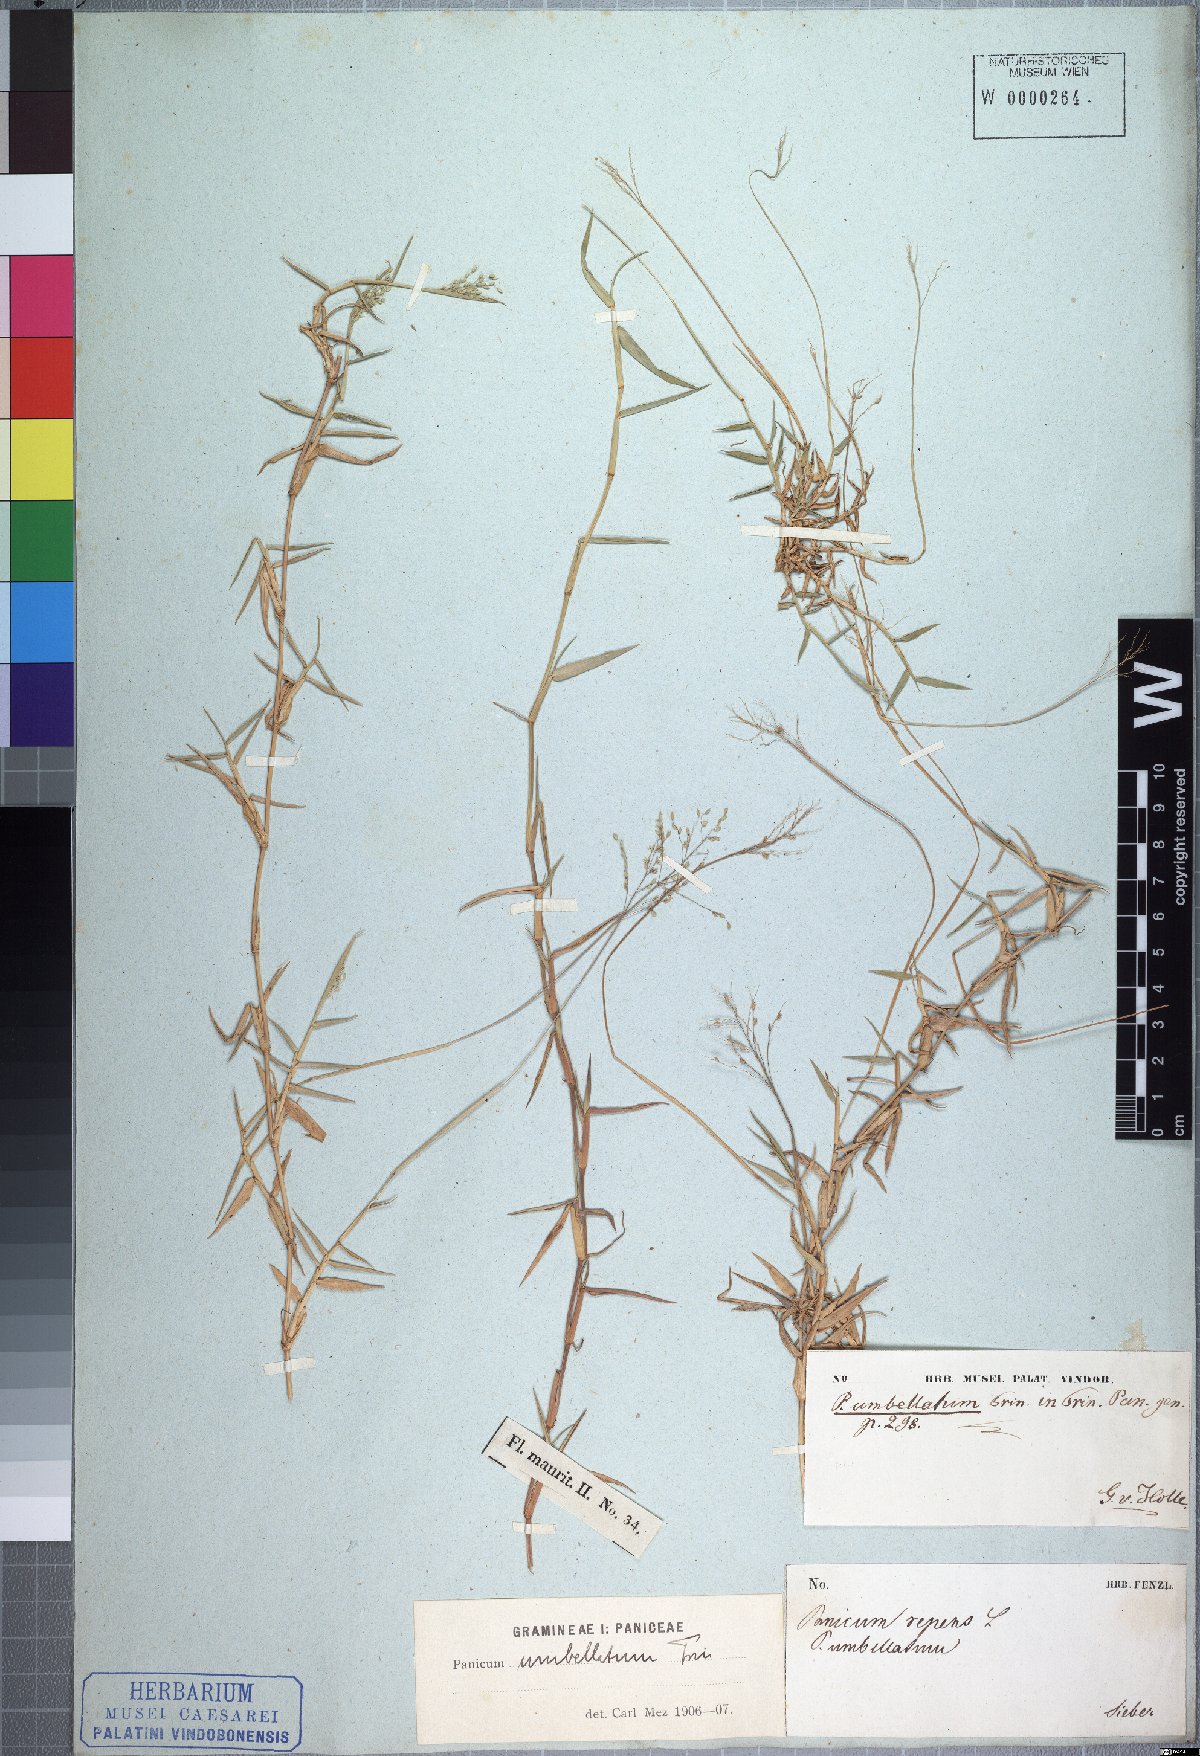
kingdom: Plantae
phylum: Tracheophyta
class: Liliopsida
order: Poales
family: Poaceae
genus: Urochloa
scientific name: Urochloa Brachiaria umbellata
